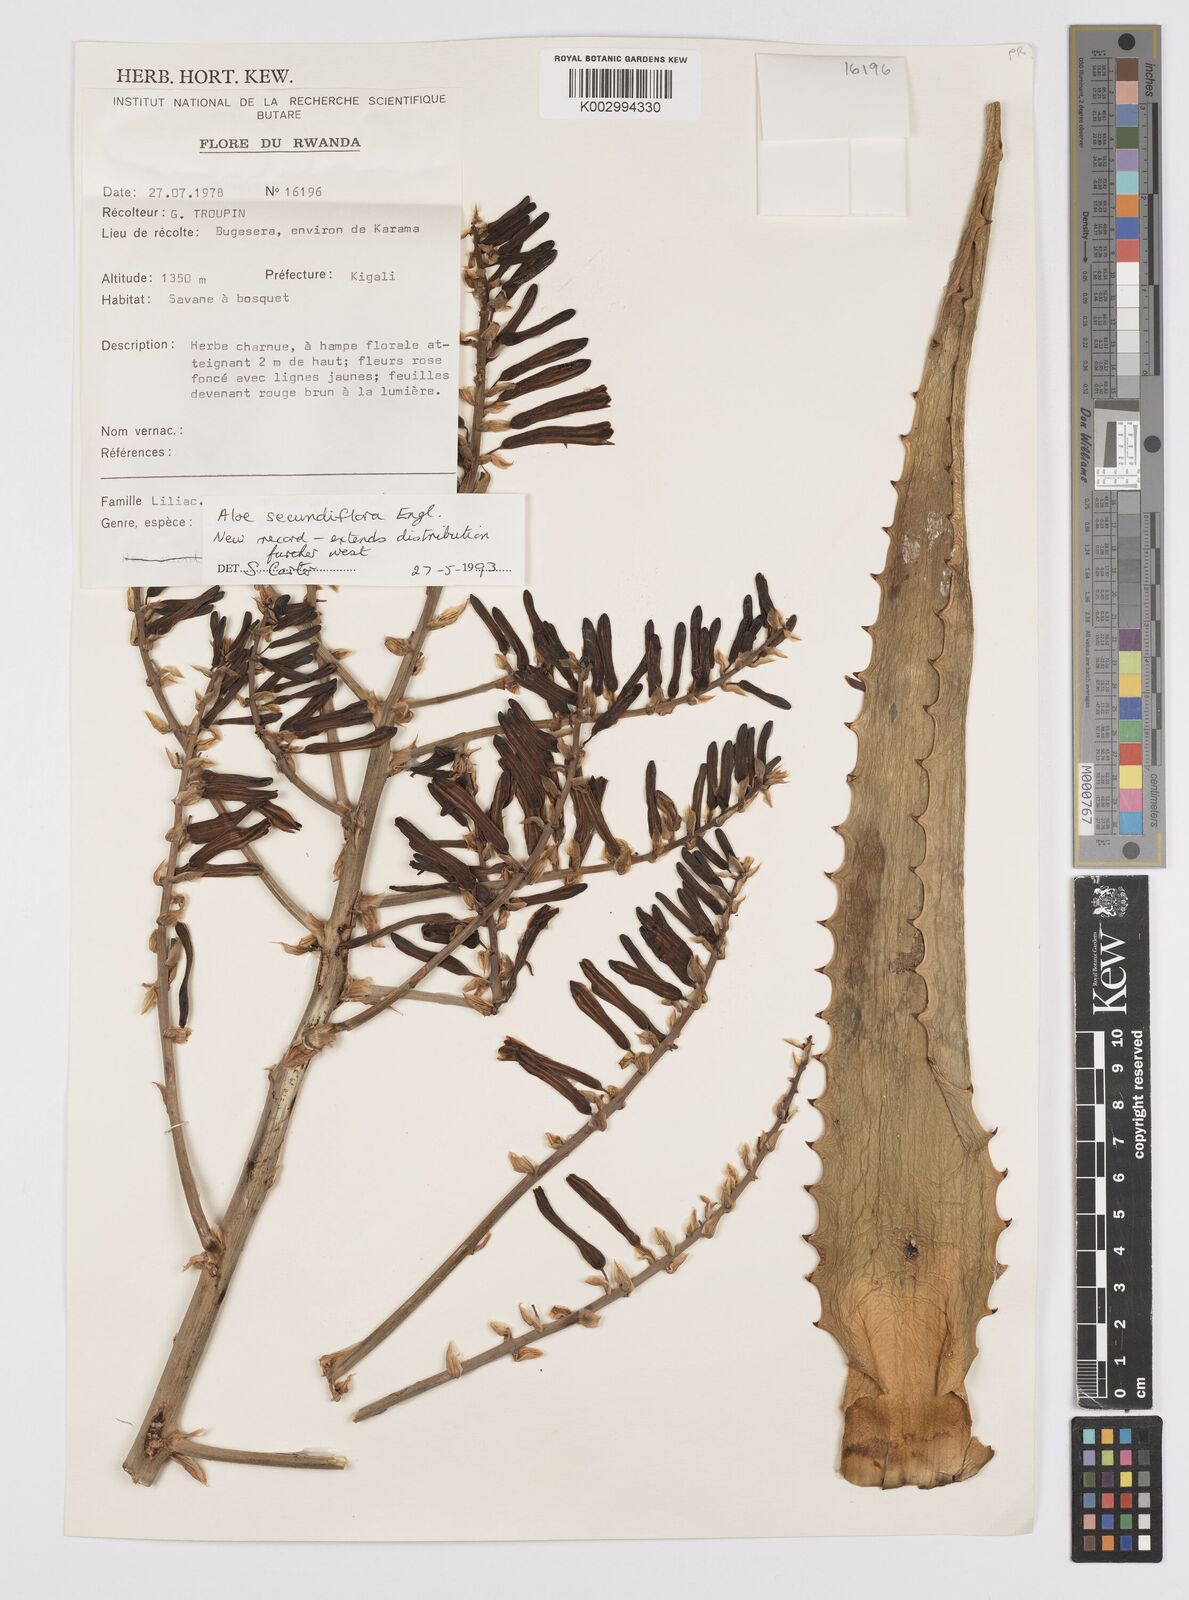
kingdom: Plantae
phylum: Tracheophyta
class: Liliopsida
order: Asparagales
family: Asphodelaceae
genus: Aloe
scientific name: Aloe secundiflora
